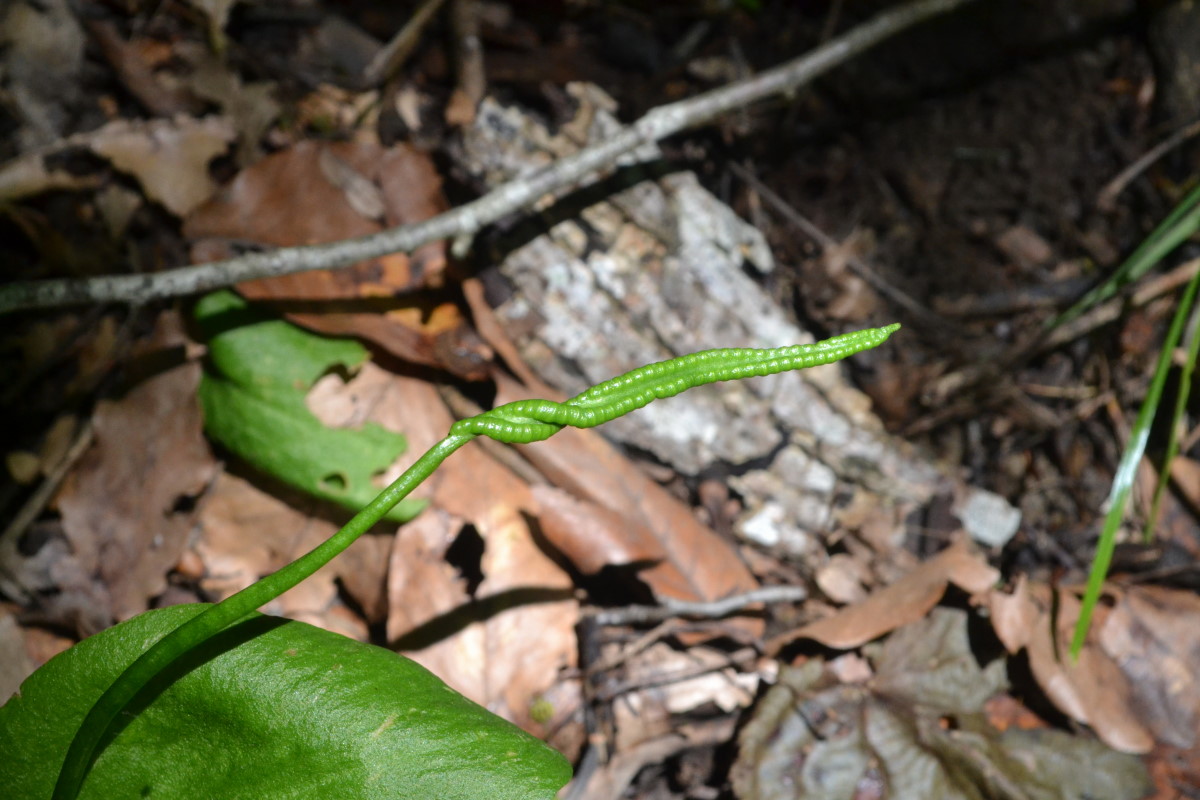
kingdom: Plantae
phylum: Tracheophyta
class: Polypodiopsida
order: Ophioglossales
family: Ophioglossaceae
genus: Ophioglossum
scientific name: Ophioglossum
